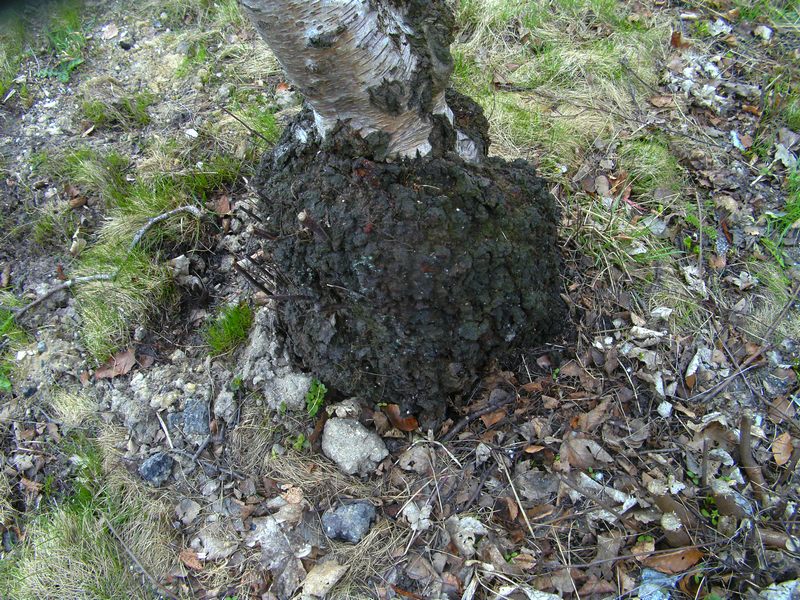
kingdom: Fungi
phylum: Basidiomycota
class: Agaricomycetes
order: Hymenochaetales
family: Hymenochaetaceae
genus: Inonotus
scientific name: Inonotus obliquus
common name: birke-spejlporesvamp
